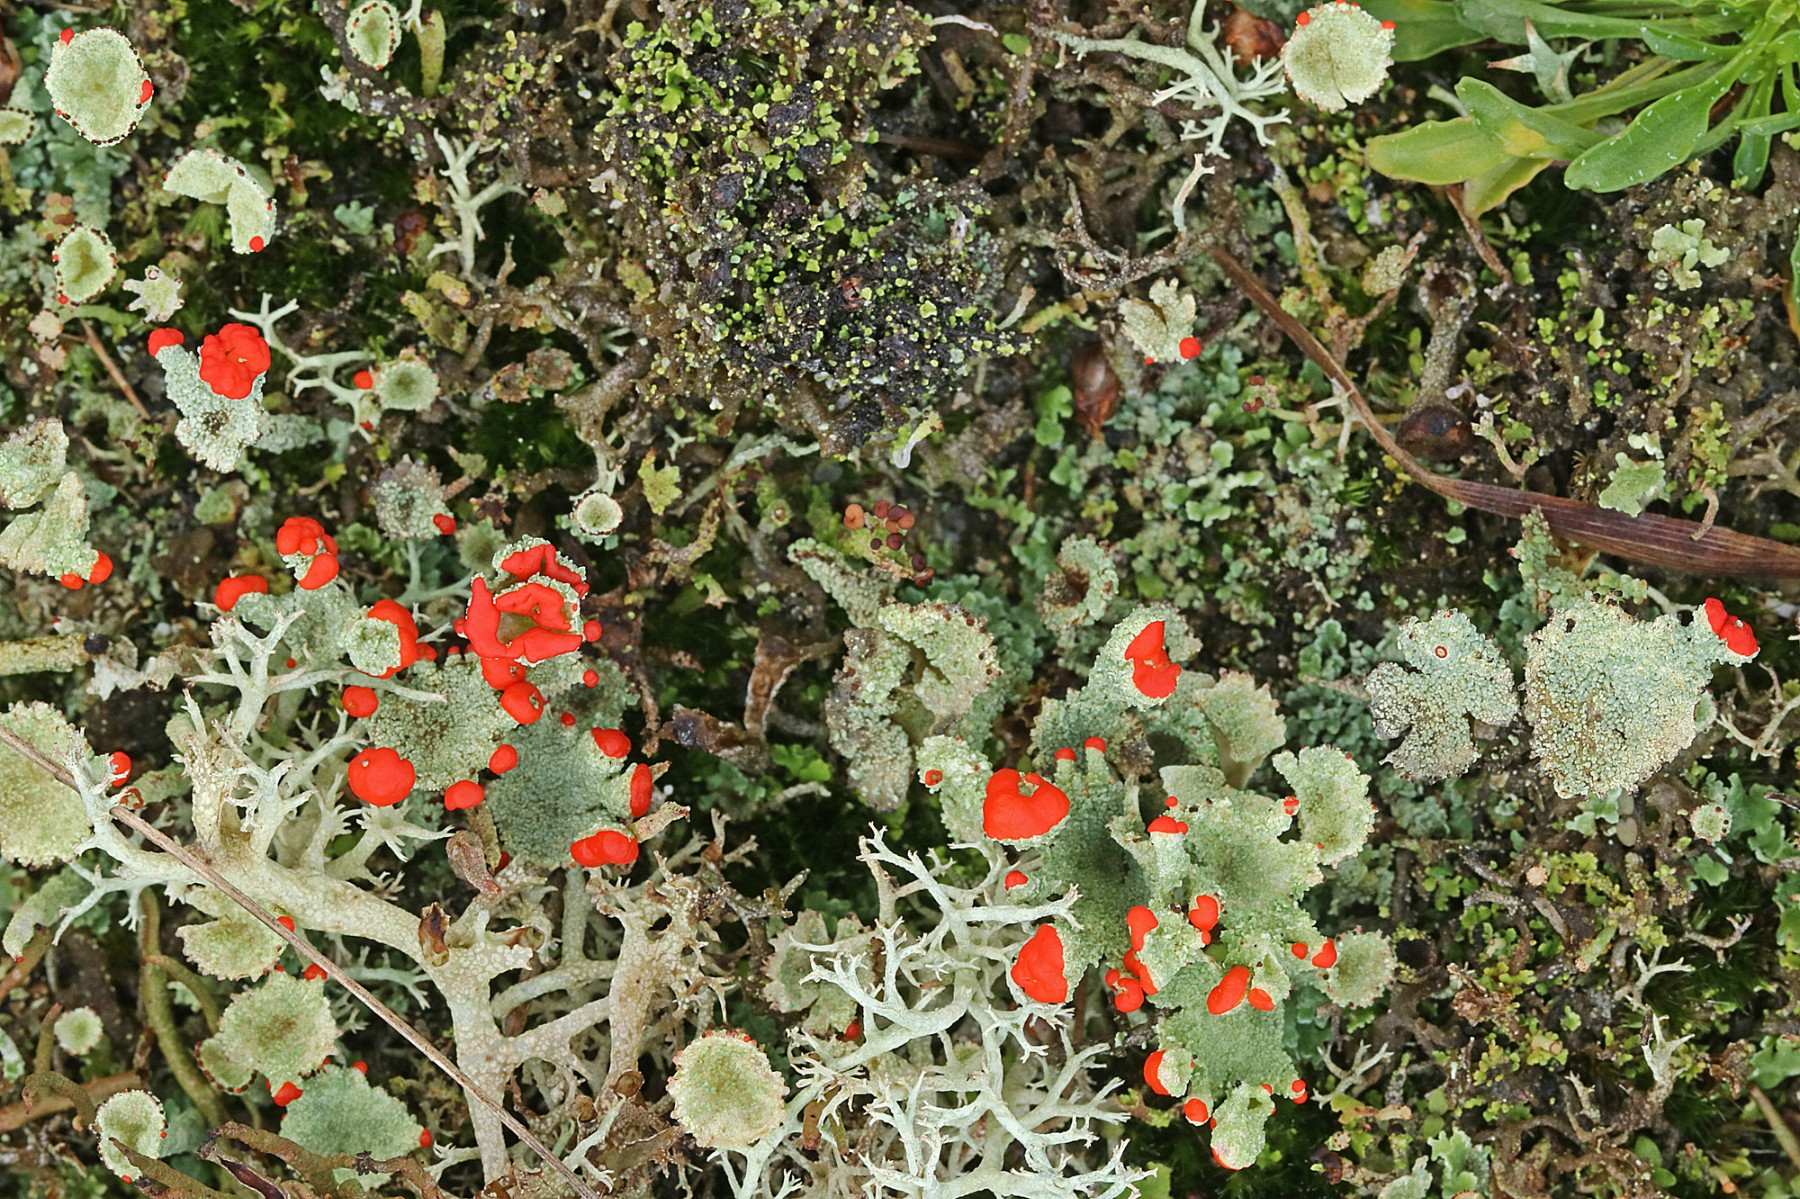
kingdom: Fungi
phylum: Ascomycota
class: Lecanoromycetes
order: Lecanorales
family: Cladoniaceae
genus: Cladonia
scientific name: Cladonia diversa
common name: rød bægerlav
